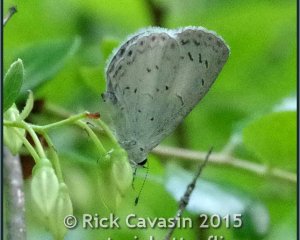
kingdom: Animalia
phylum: Arthropoda
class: Insecta
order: Lepidoptera
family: Lycaenidae
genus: Cyaniris
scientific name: Cyaniris neglecta
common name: Summer Azure
